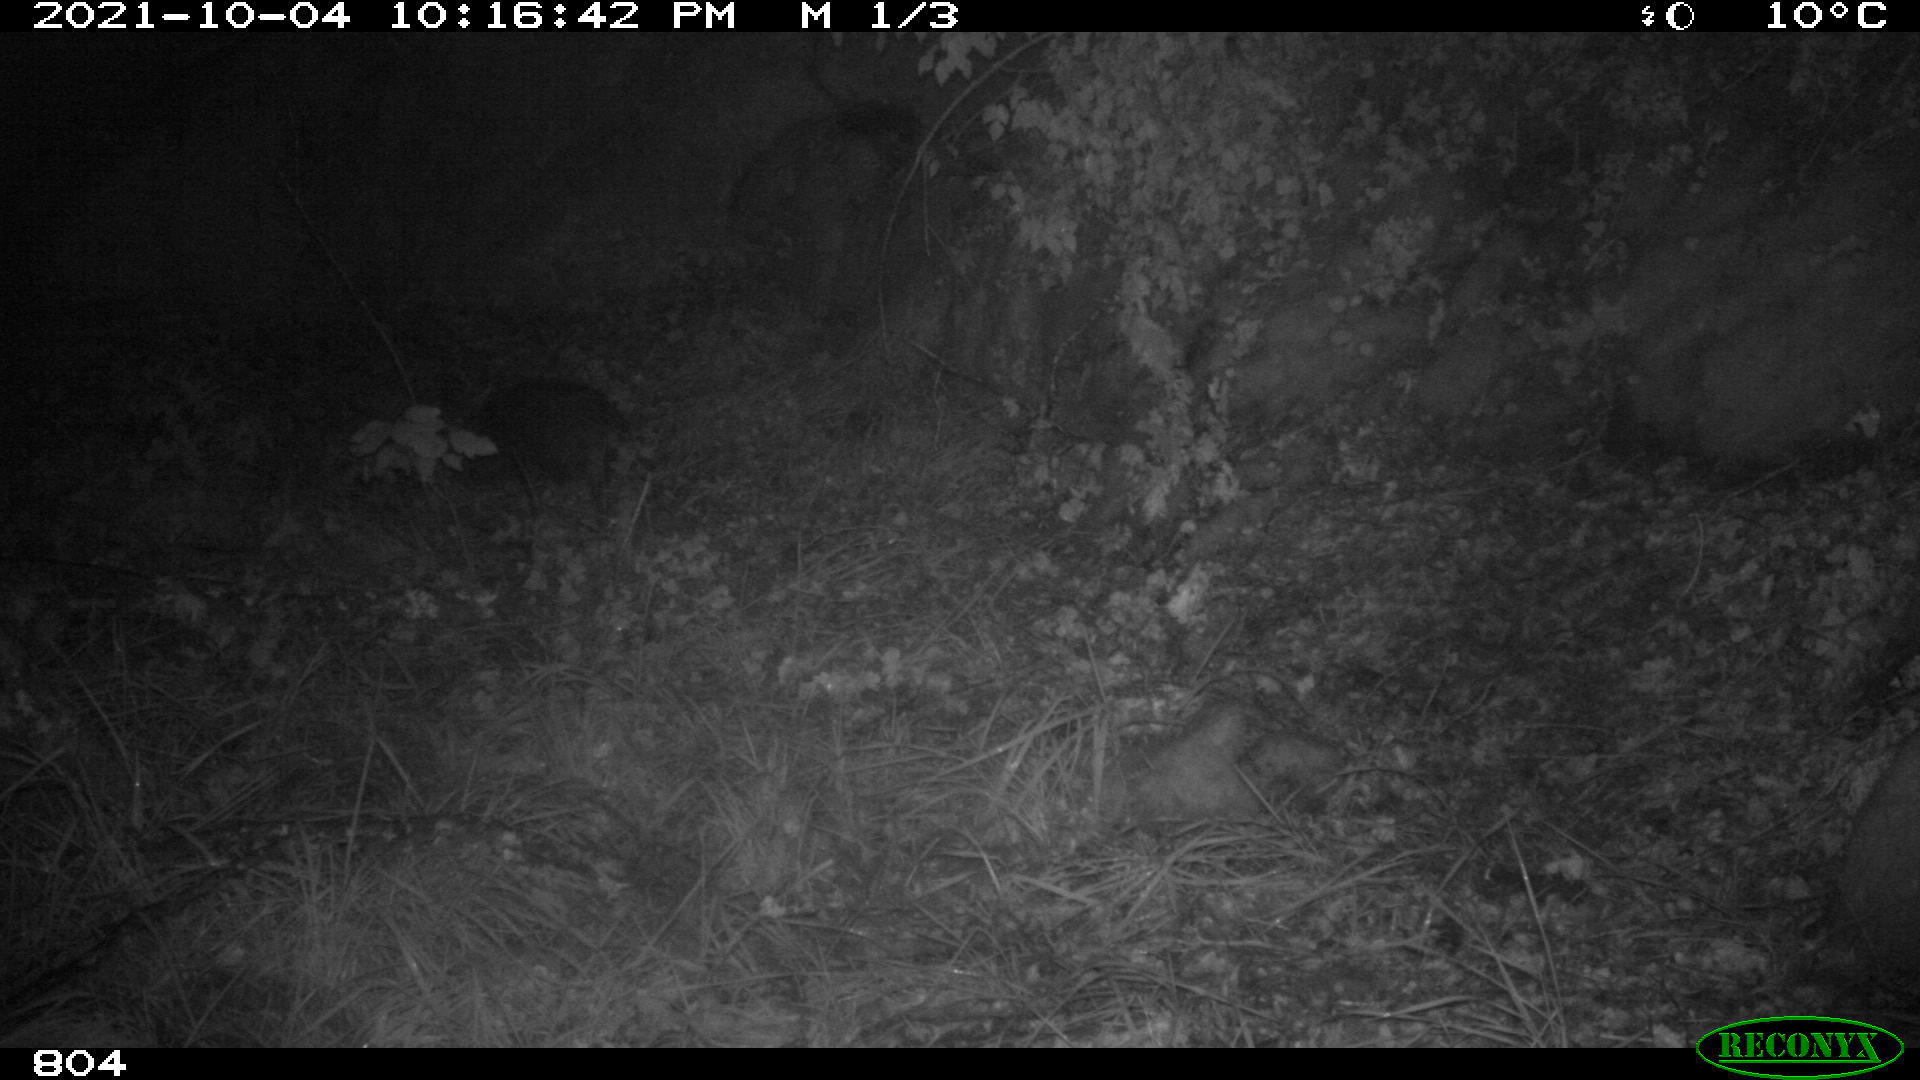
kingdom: Animalia
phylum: Chordata
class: Mammalia
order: Artiodactyla
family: Suidae
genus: Sus
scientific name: Sus scrofa
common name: Wild boar
